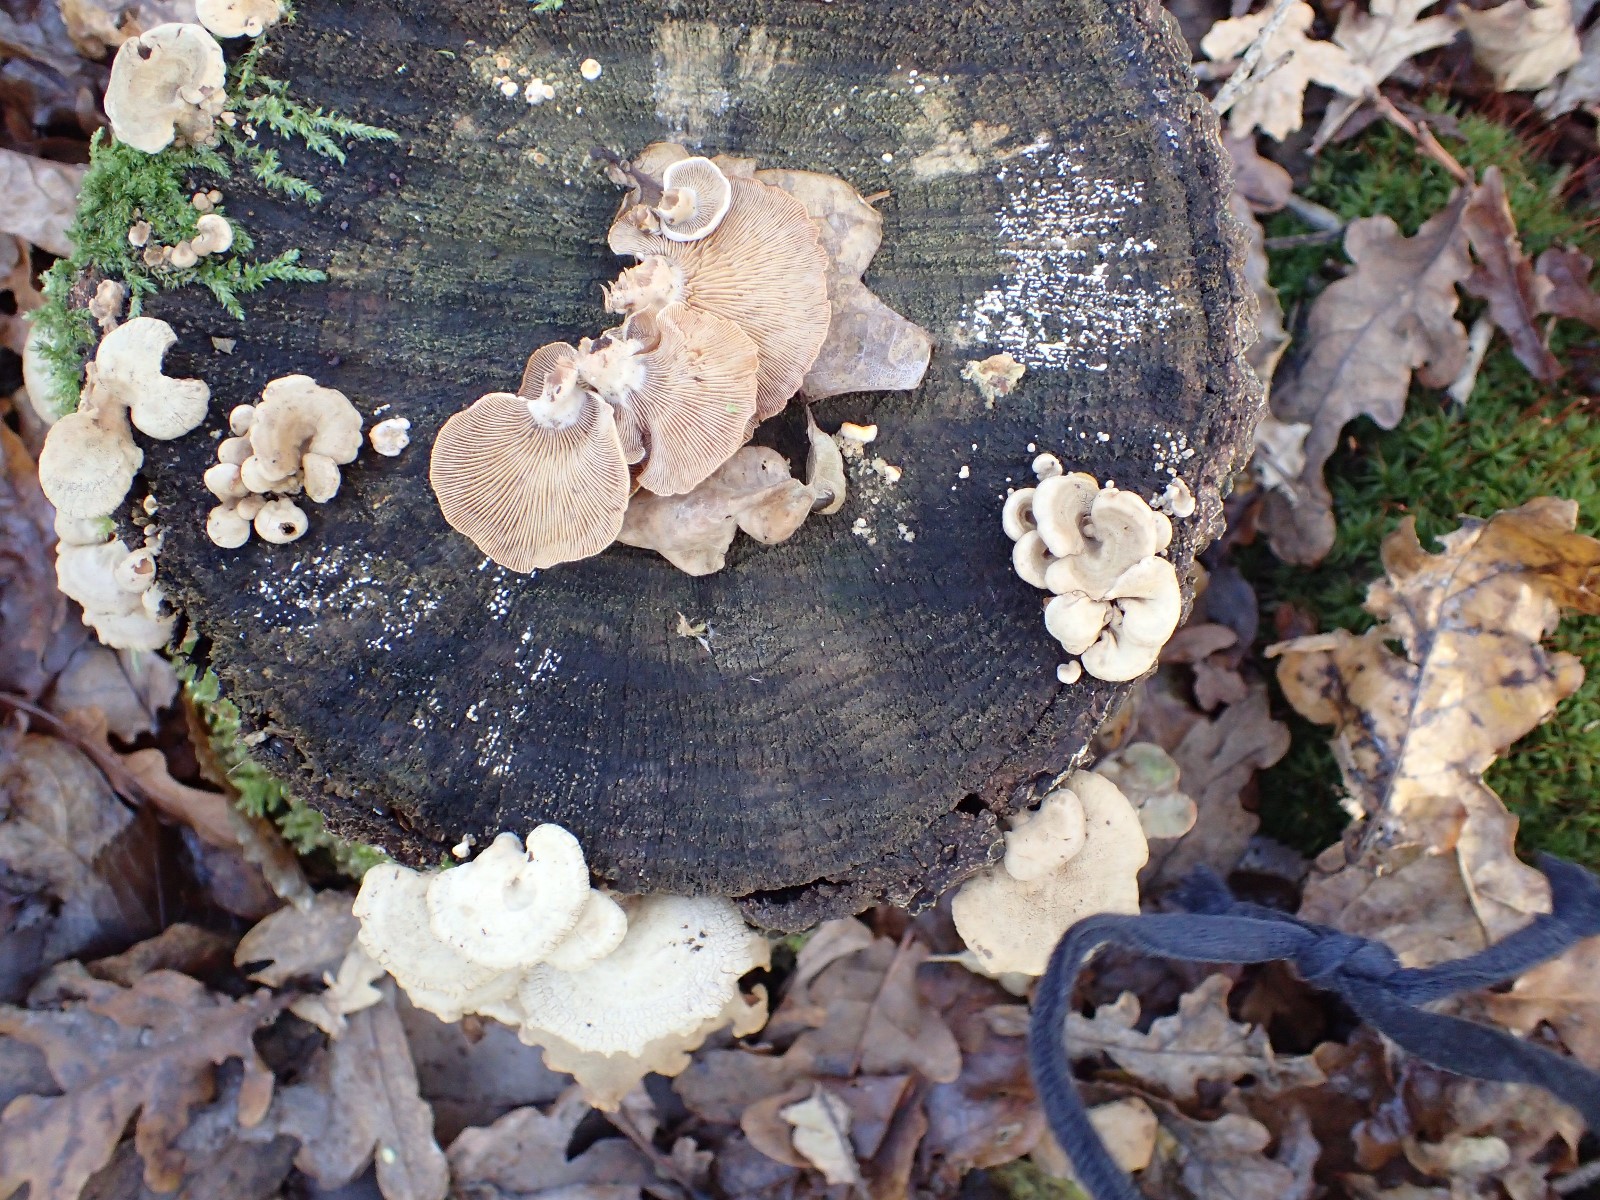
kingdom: Fungi
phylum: Basidiomycota
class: Agaricomycetes
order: Agaricales
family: Mycenaceae
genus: Panellus
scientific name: Panellus stipticus
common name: kliddet epaulethat
